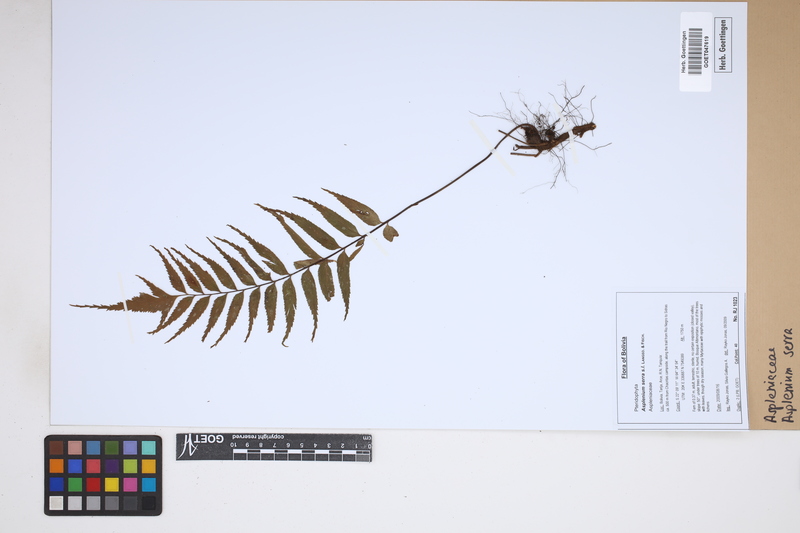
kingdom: Plantae
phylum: Tracheophyta
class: Polypodiopsida
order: Polypodiales
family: Aspleniaceae
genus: Asplenium
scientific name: Asplenium serra
